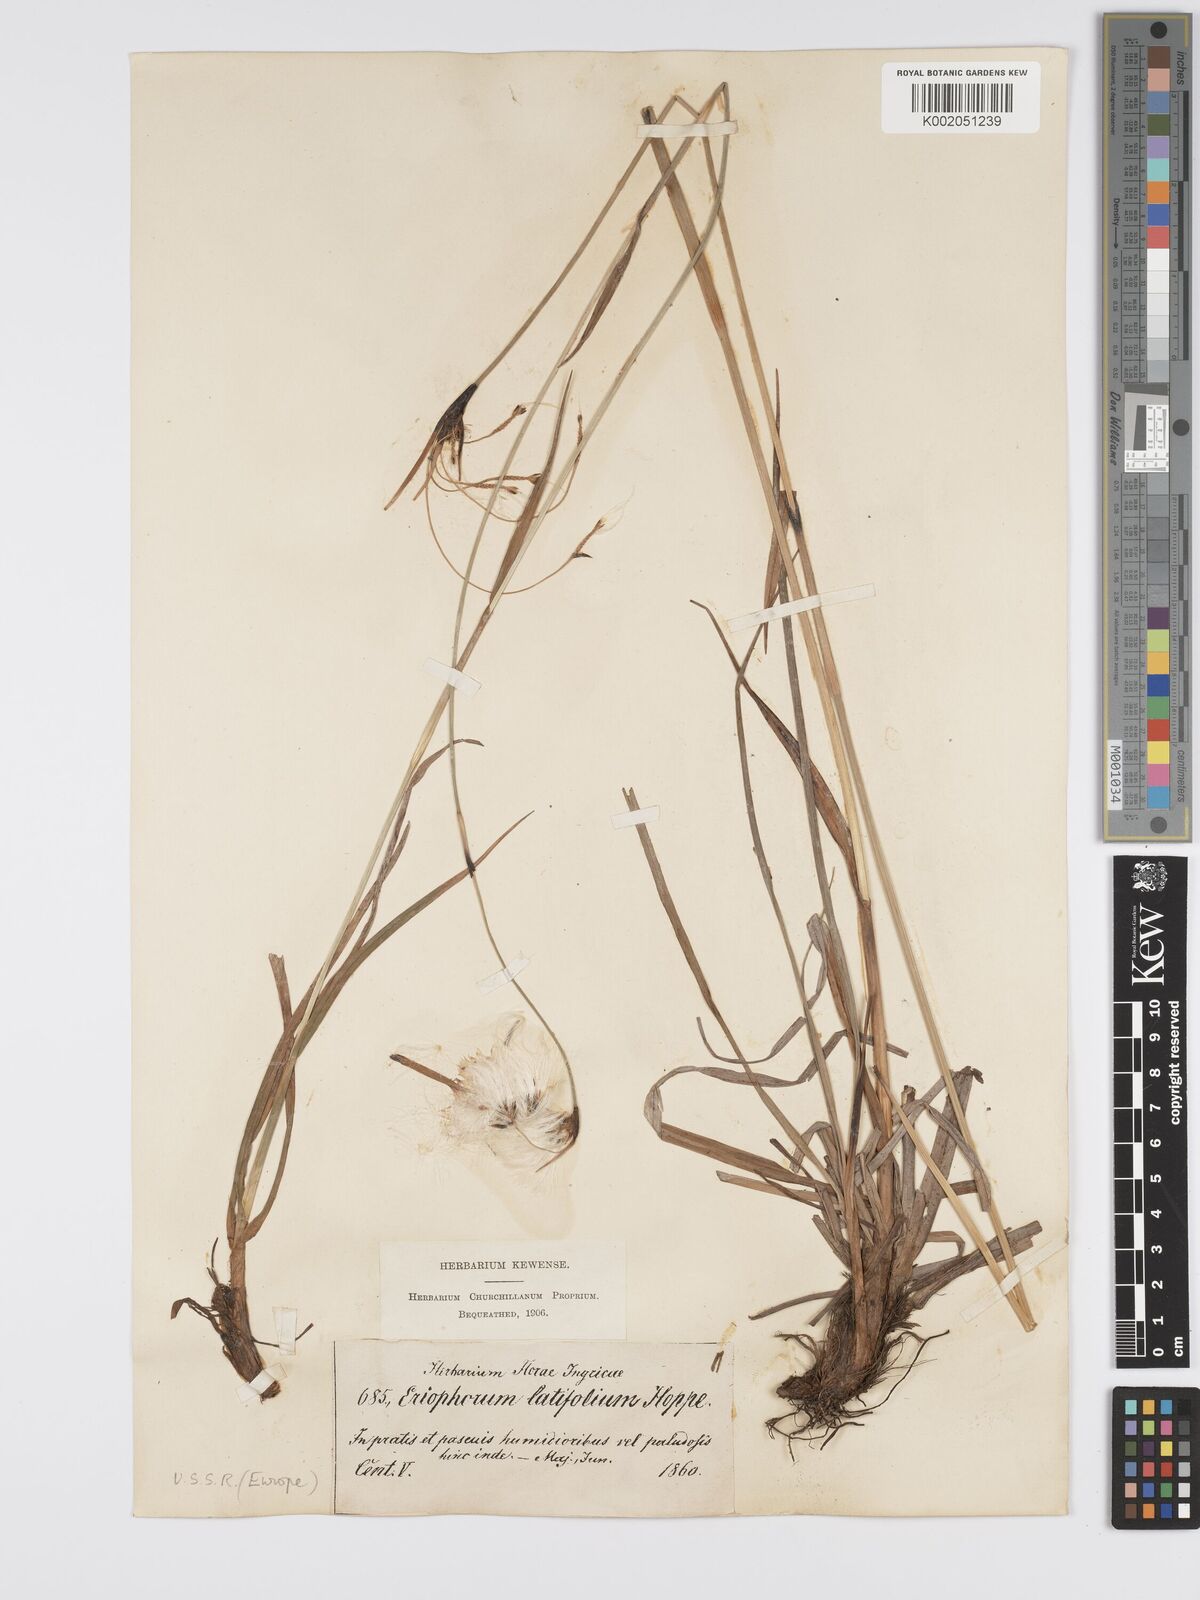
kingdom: Plantae
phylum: Tracheophyta
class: Liliopsida
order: Poales
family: Cyperaceae
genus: Eriophorum
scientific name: Eriophorum latifolium
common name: Broad-leaved cottongrass
